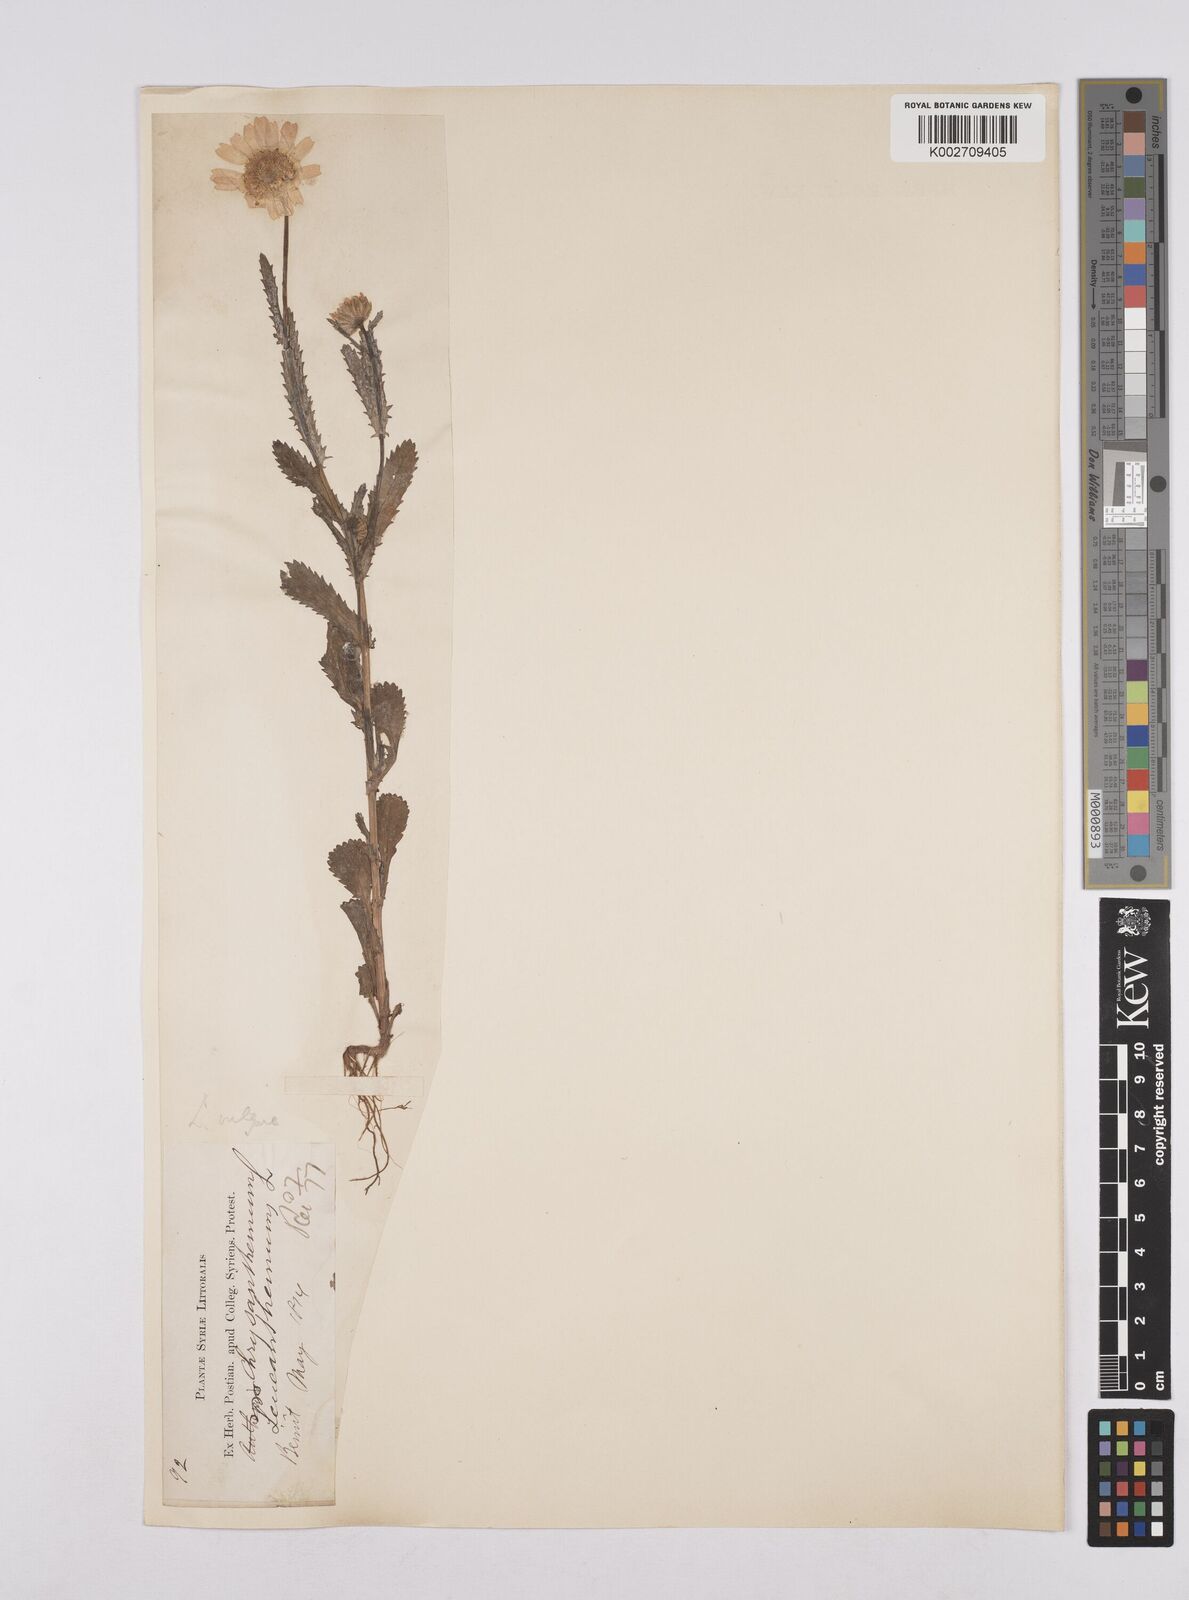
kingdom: Plantae
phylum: Tracheophyta
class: Magnoliopsida
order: Asterales
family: Asteraceae
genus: Leucanthemum
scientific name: Leucanthemum vulgare
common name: Oxeye daisy
